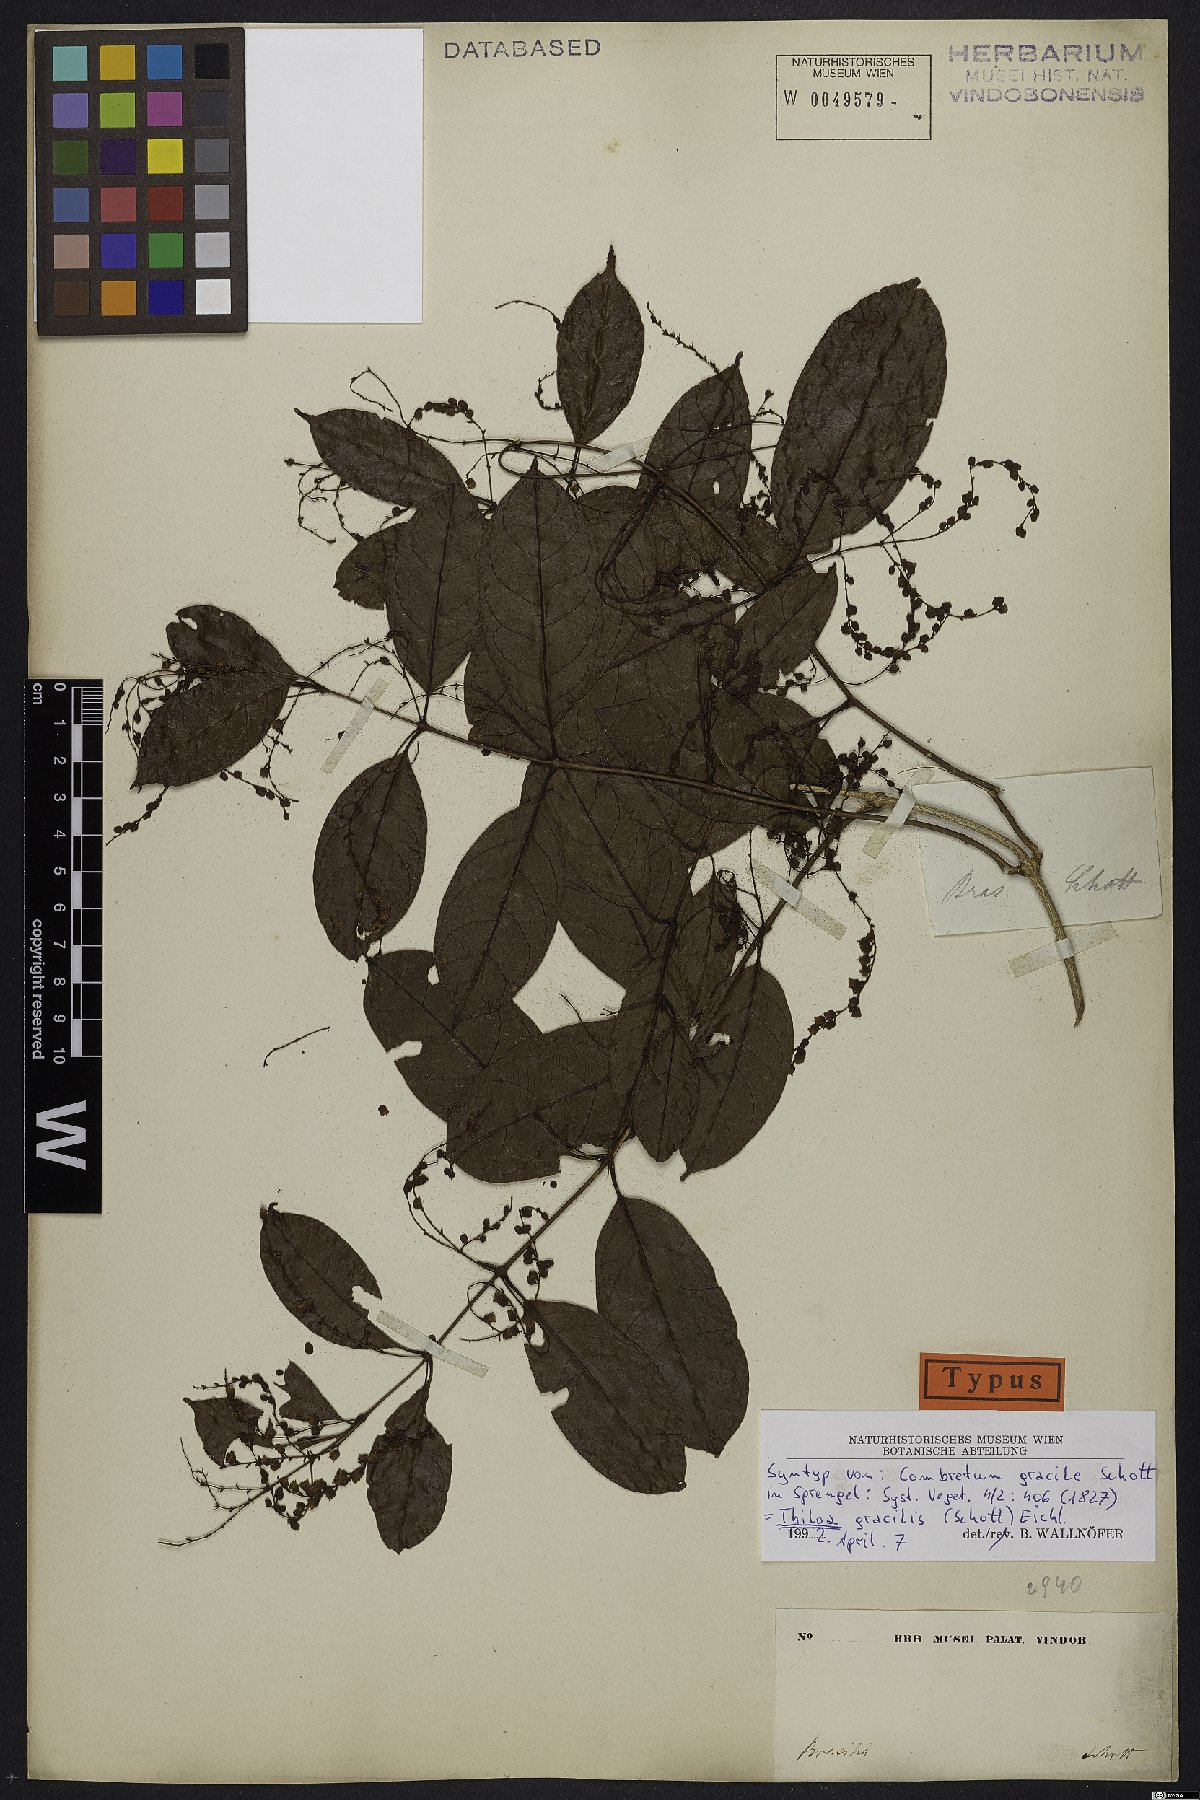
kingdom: Plantae
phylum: Tracheophyta
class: Magnoliopsida
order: Myrtales
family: Combretaceae
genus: Combretum
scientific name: Combretum gracile
